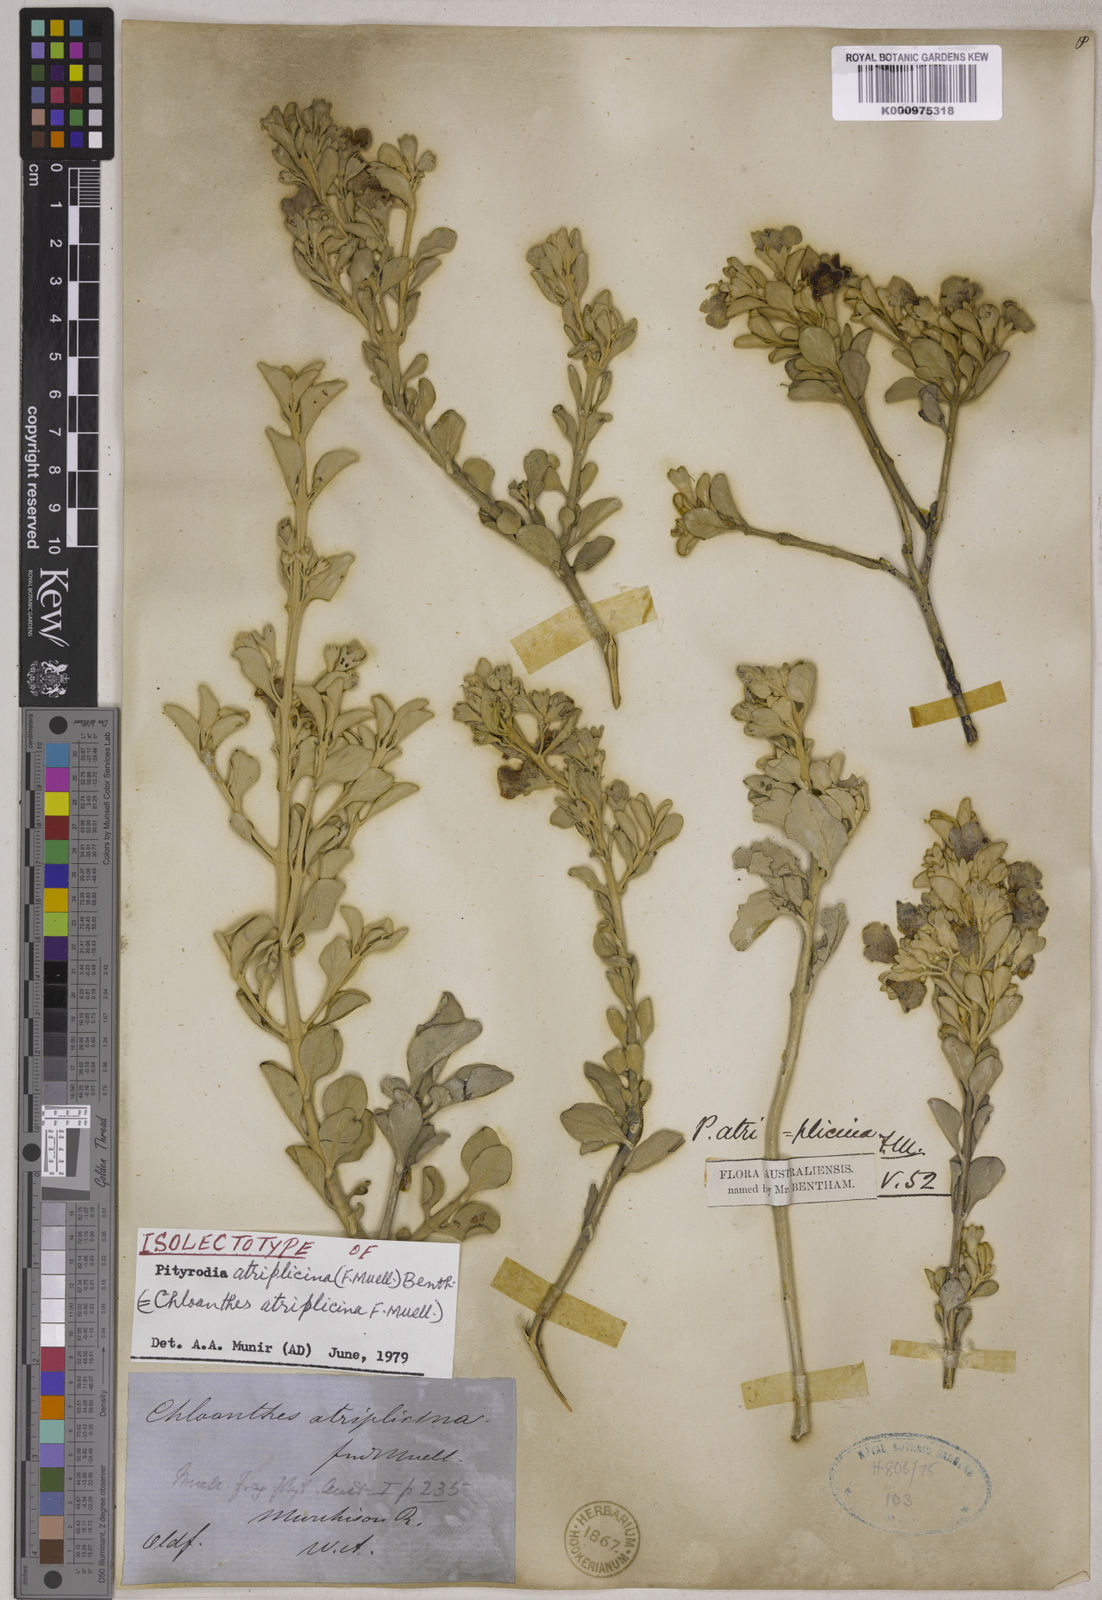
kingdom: Plantae
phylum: Tracheophyta
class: Magnoliopsida
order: Lamiales
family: Lamiaceae
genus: Quoya
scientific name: Quoya atriplicina
